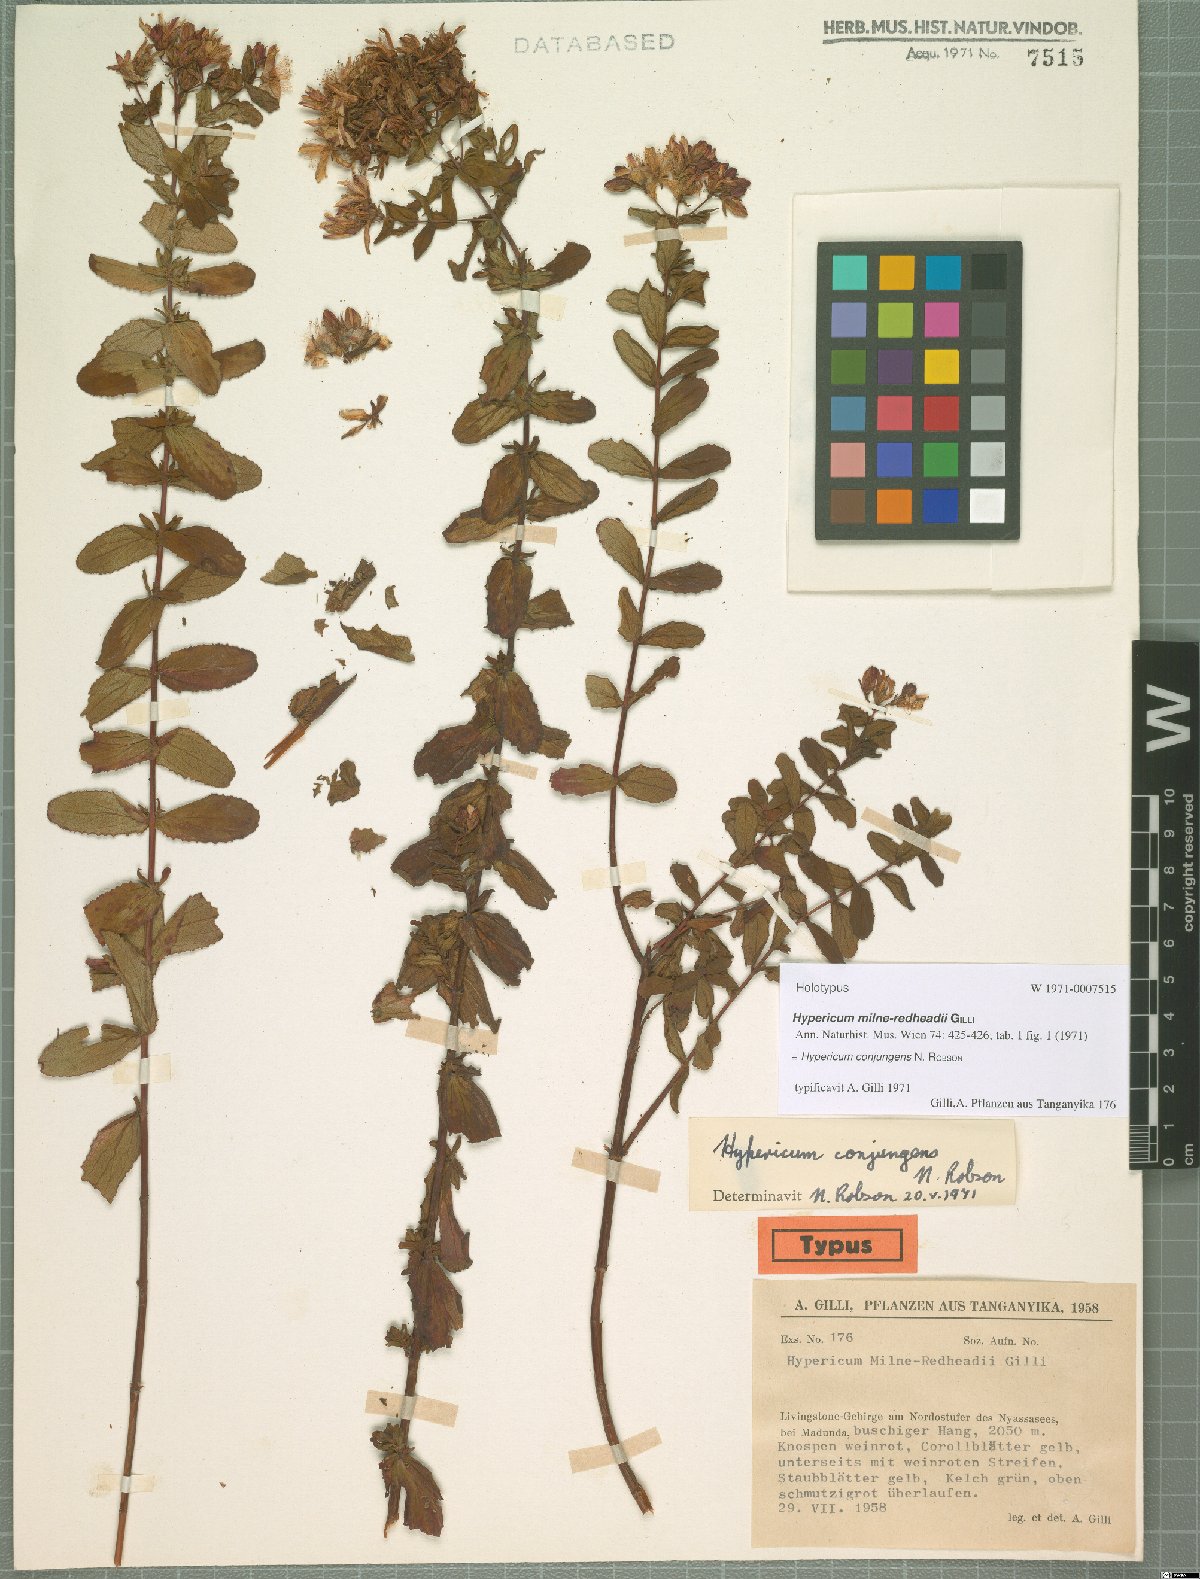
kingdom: Plantae
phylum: Tracheophyta
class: Magnoliopsida
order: Malpighiales
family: Hypericaceae
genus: Hypericum
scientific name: Hypericum conjungens
